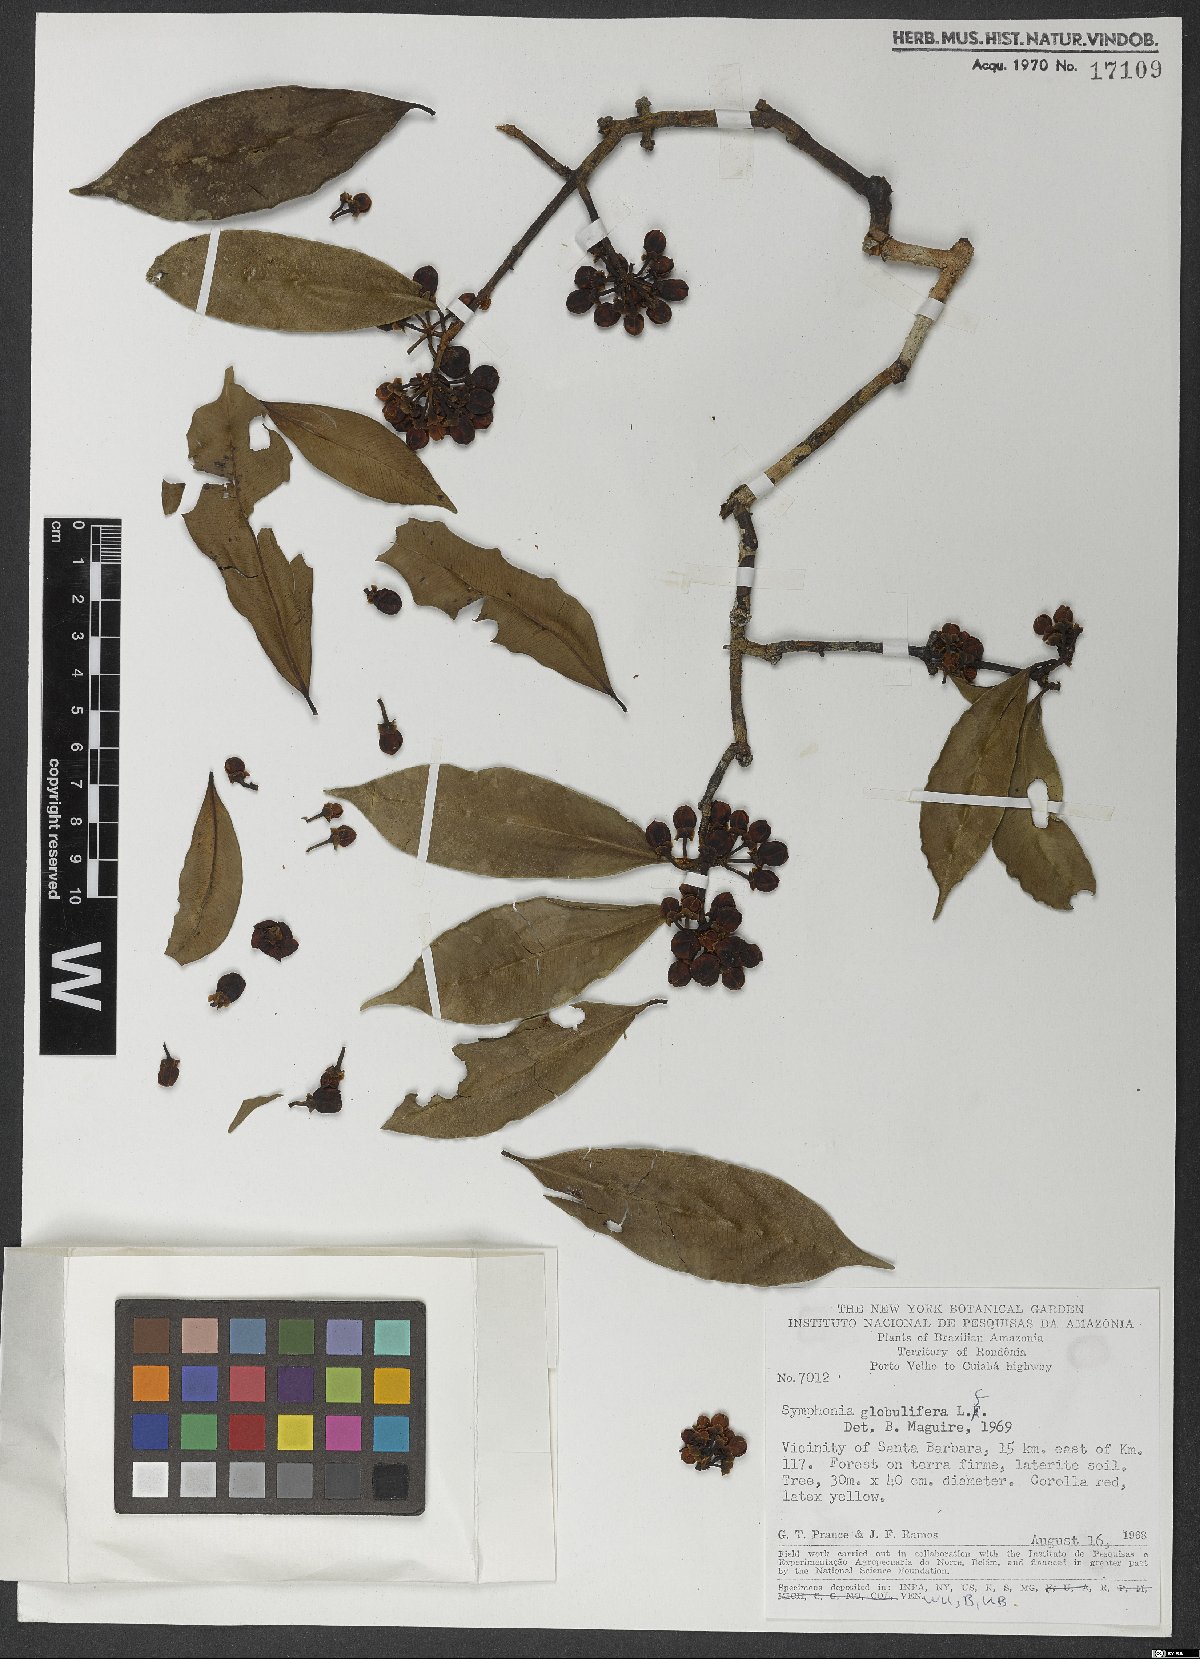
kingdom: Plantae
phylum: Tracheophyta
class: Magnoliopsida
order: Malpighiales
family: Clusiaceae
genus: Symphonia
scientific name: Symphonia globulifera
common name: Boarwood
